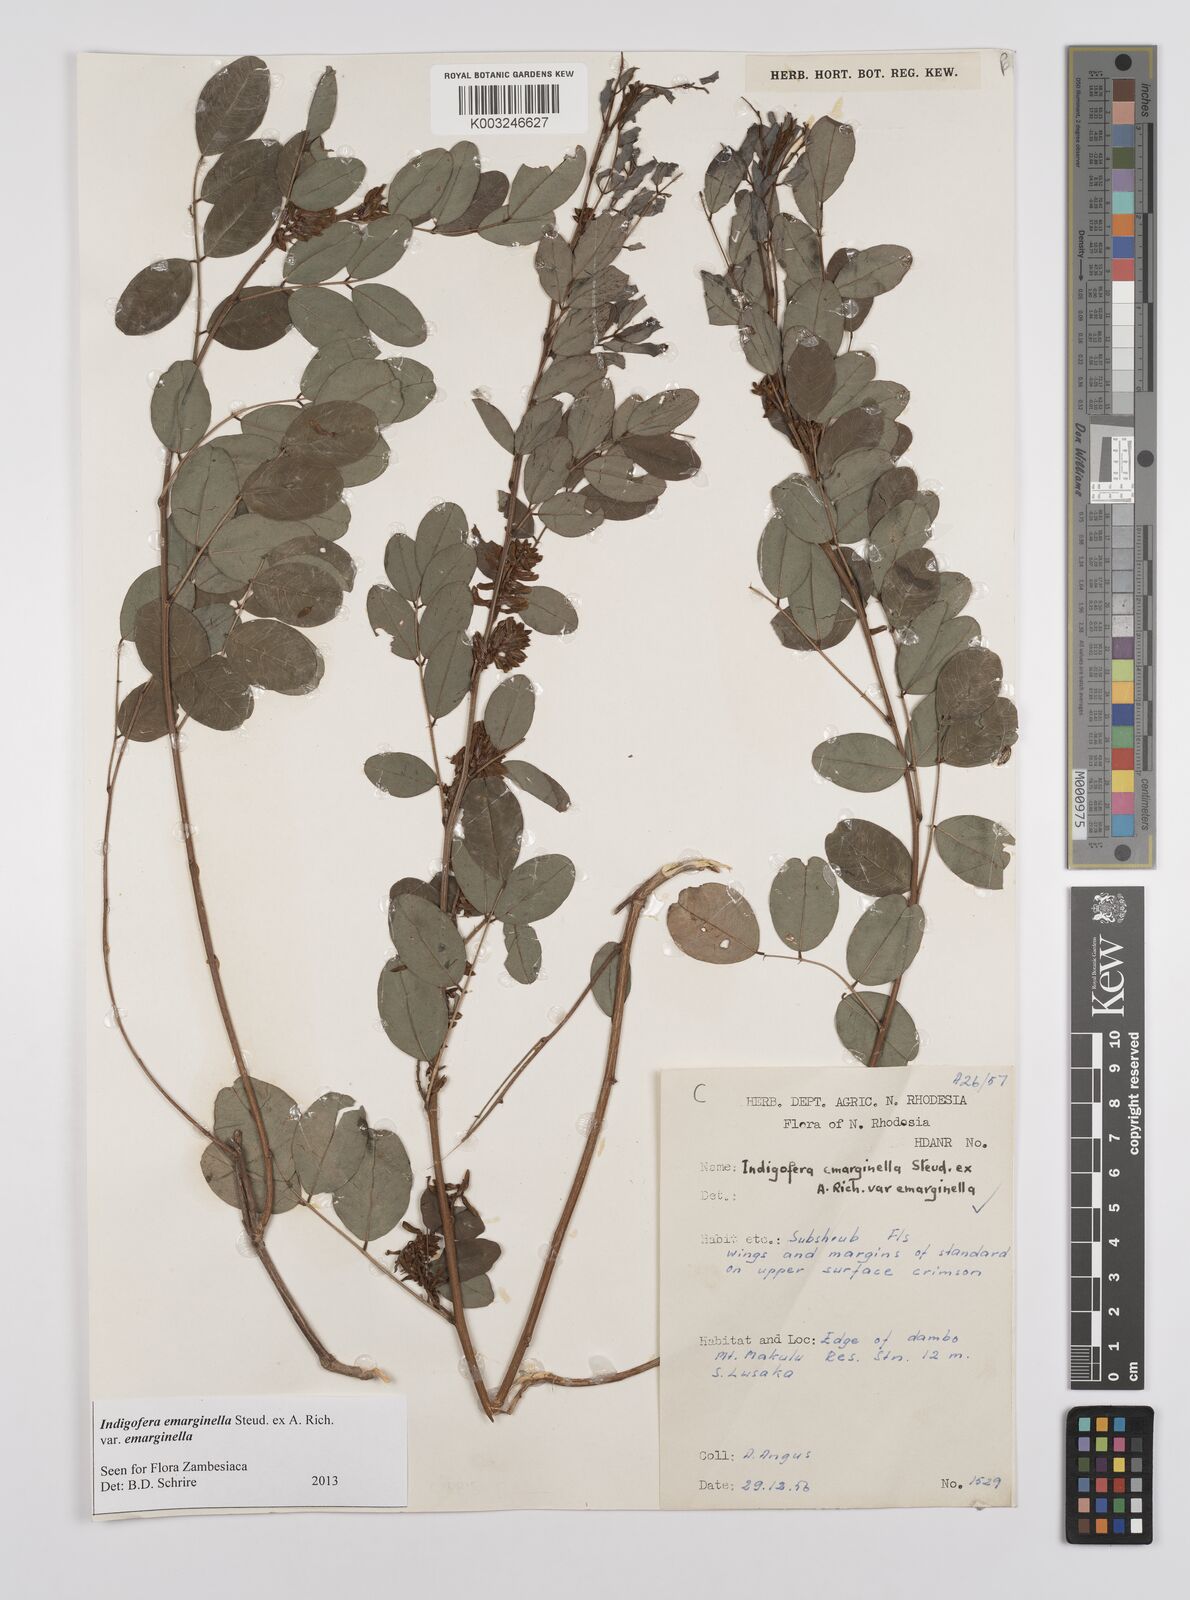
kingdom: Plantae
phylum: Tracheophyta
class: Magnoliopsida
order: Fabales
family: Fabaceae
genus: Indigofera
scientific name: Indigofera emarginella
